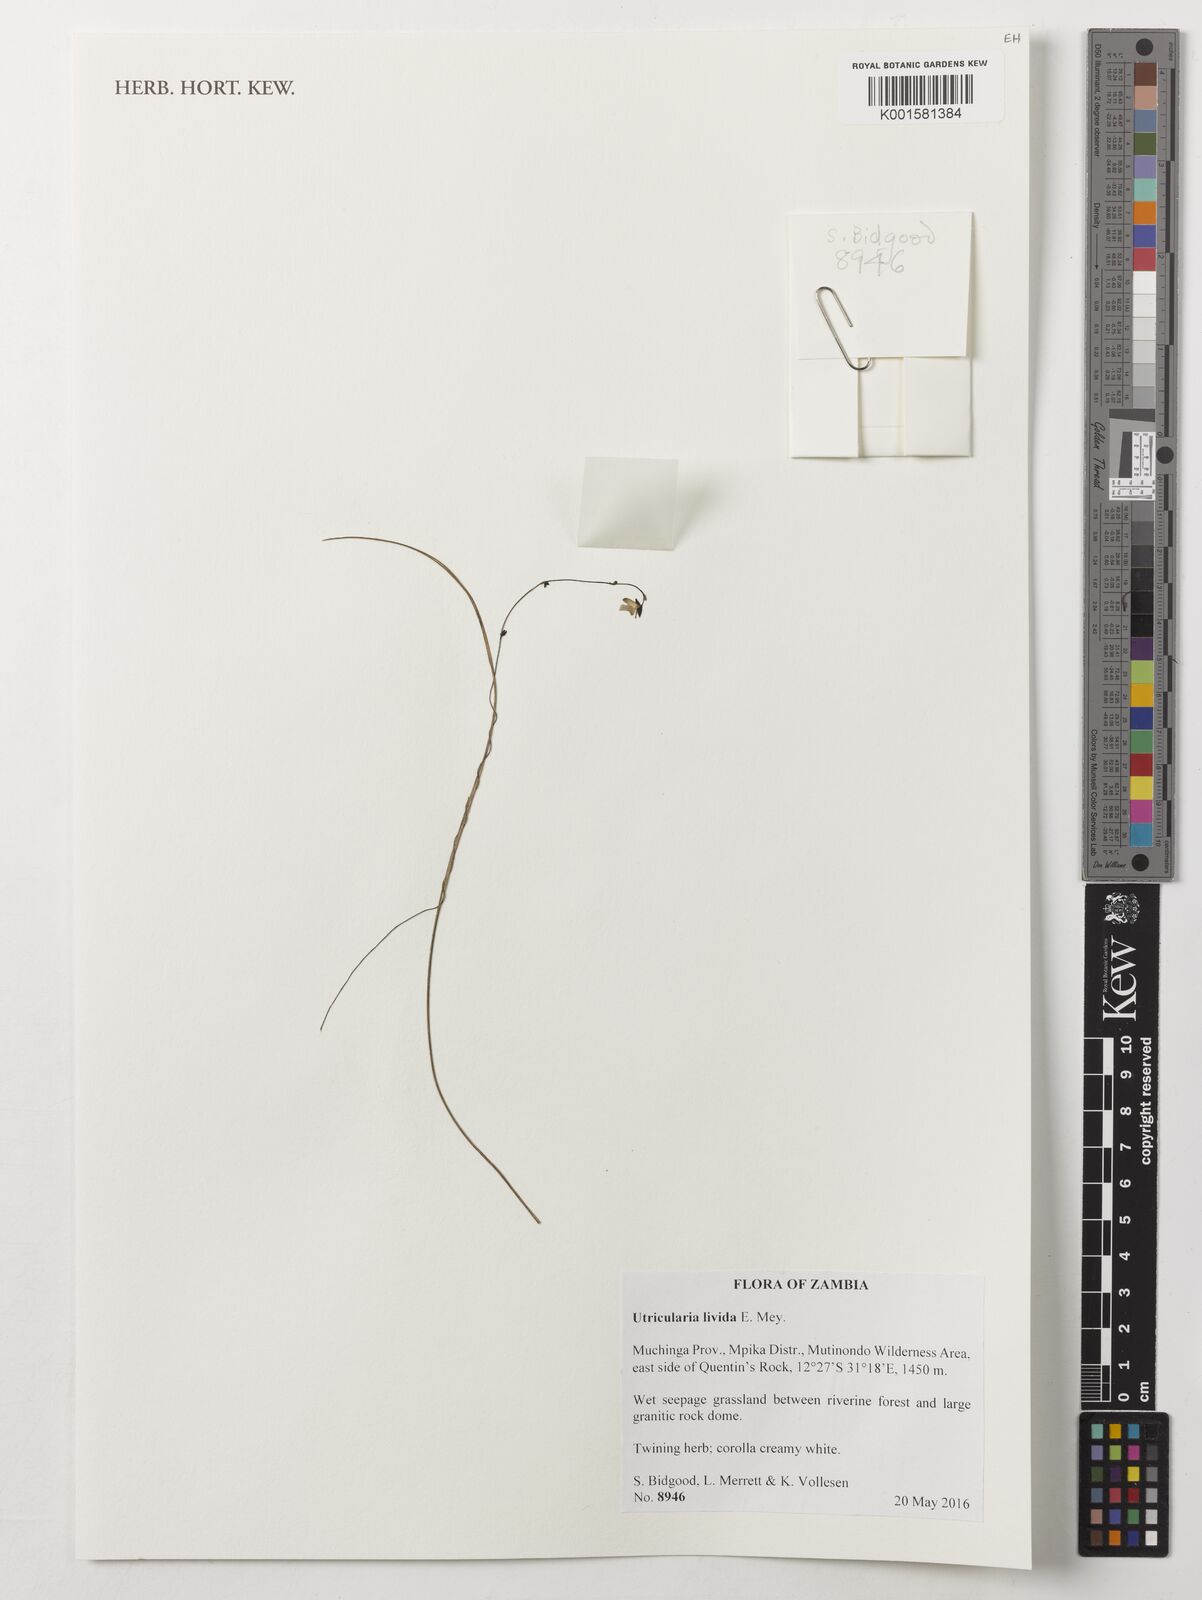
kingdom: Plantae
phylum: Tracheophyta
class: Magnoliopsida
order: Lamiales
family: Lentibulariaceae
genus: Utricularia
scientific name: Utricularia livida
